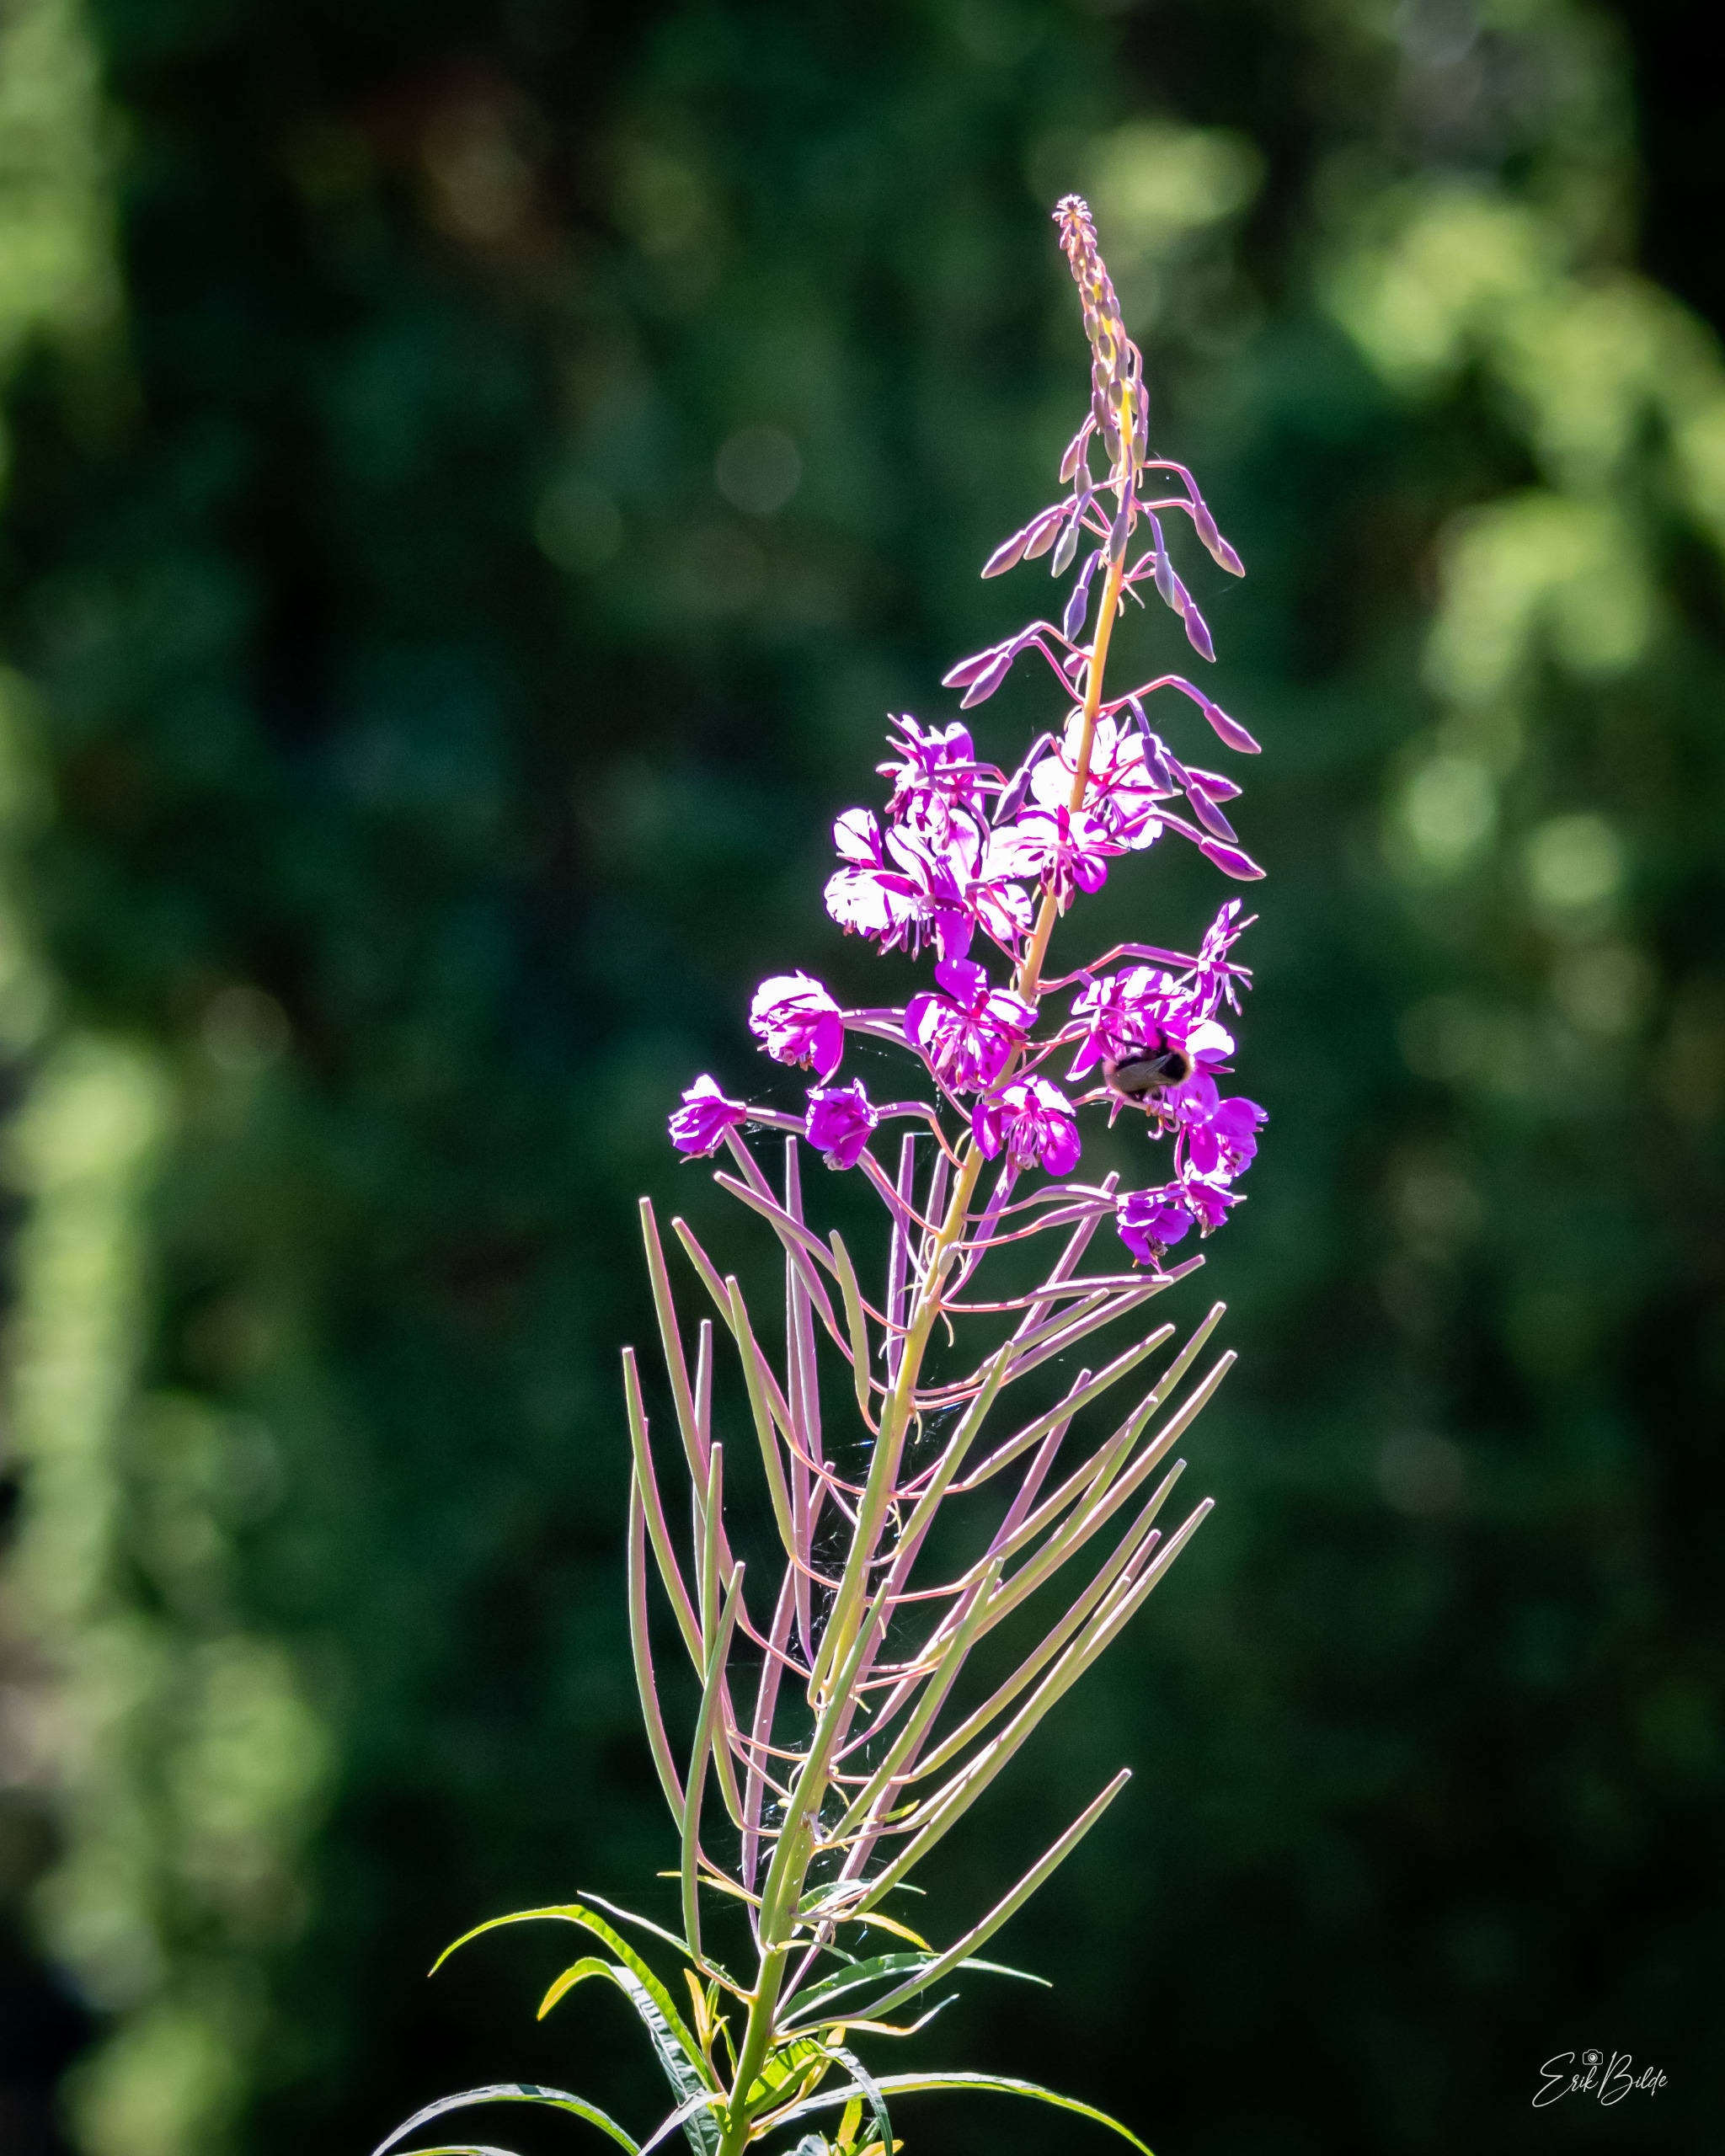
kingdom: Plantae
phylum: Tracheophyta
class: Magnoliopsida
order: Myrtales
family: Onagraceae
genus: Chamaenerion
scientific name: Chamaenerion angustifolium
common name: Gederams
